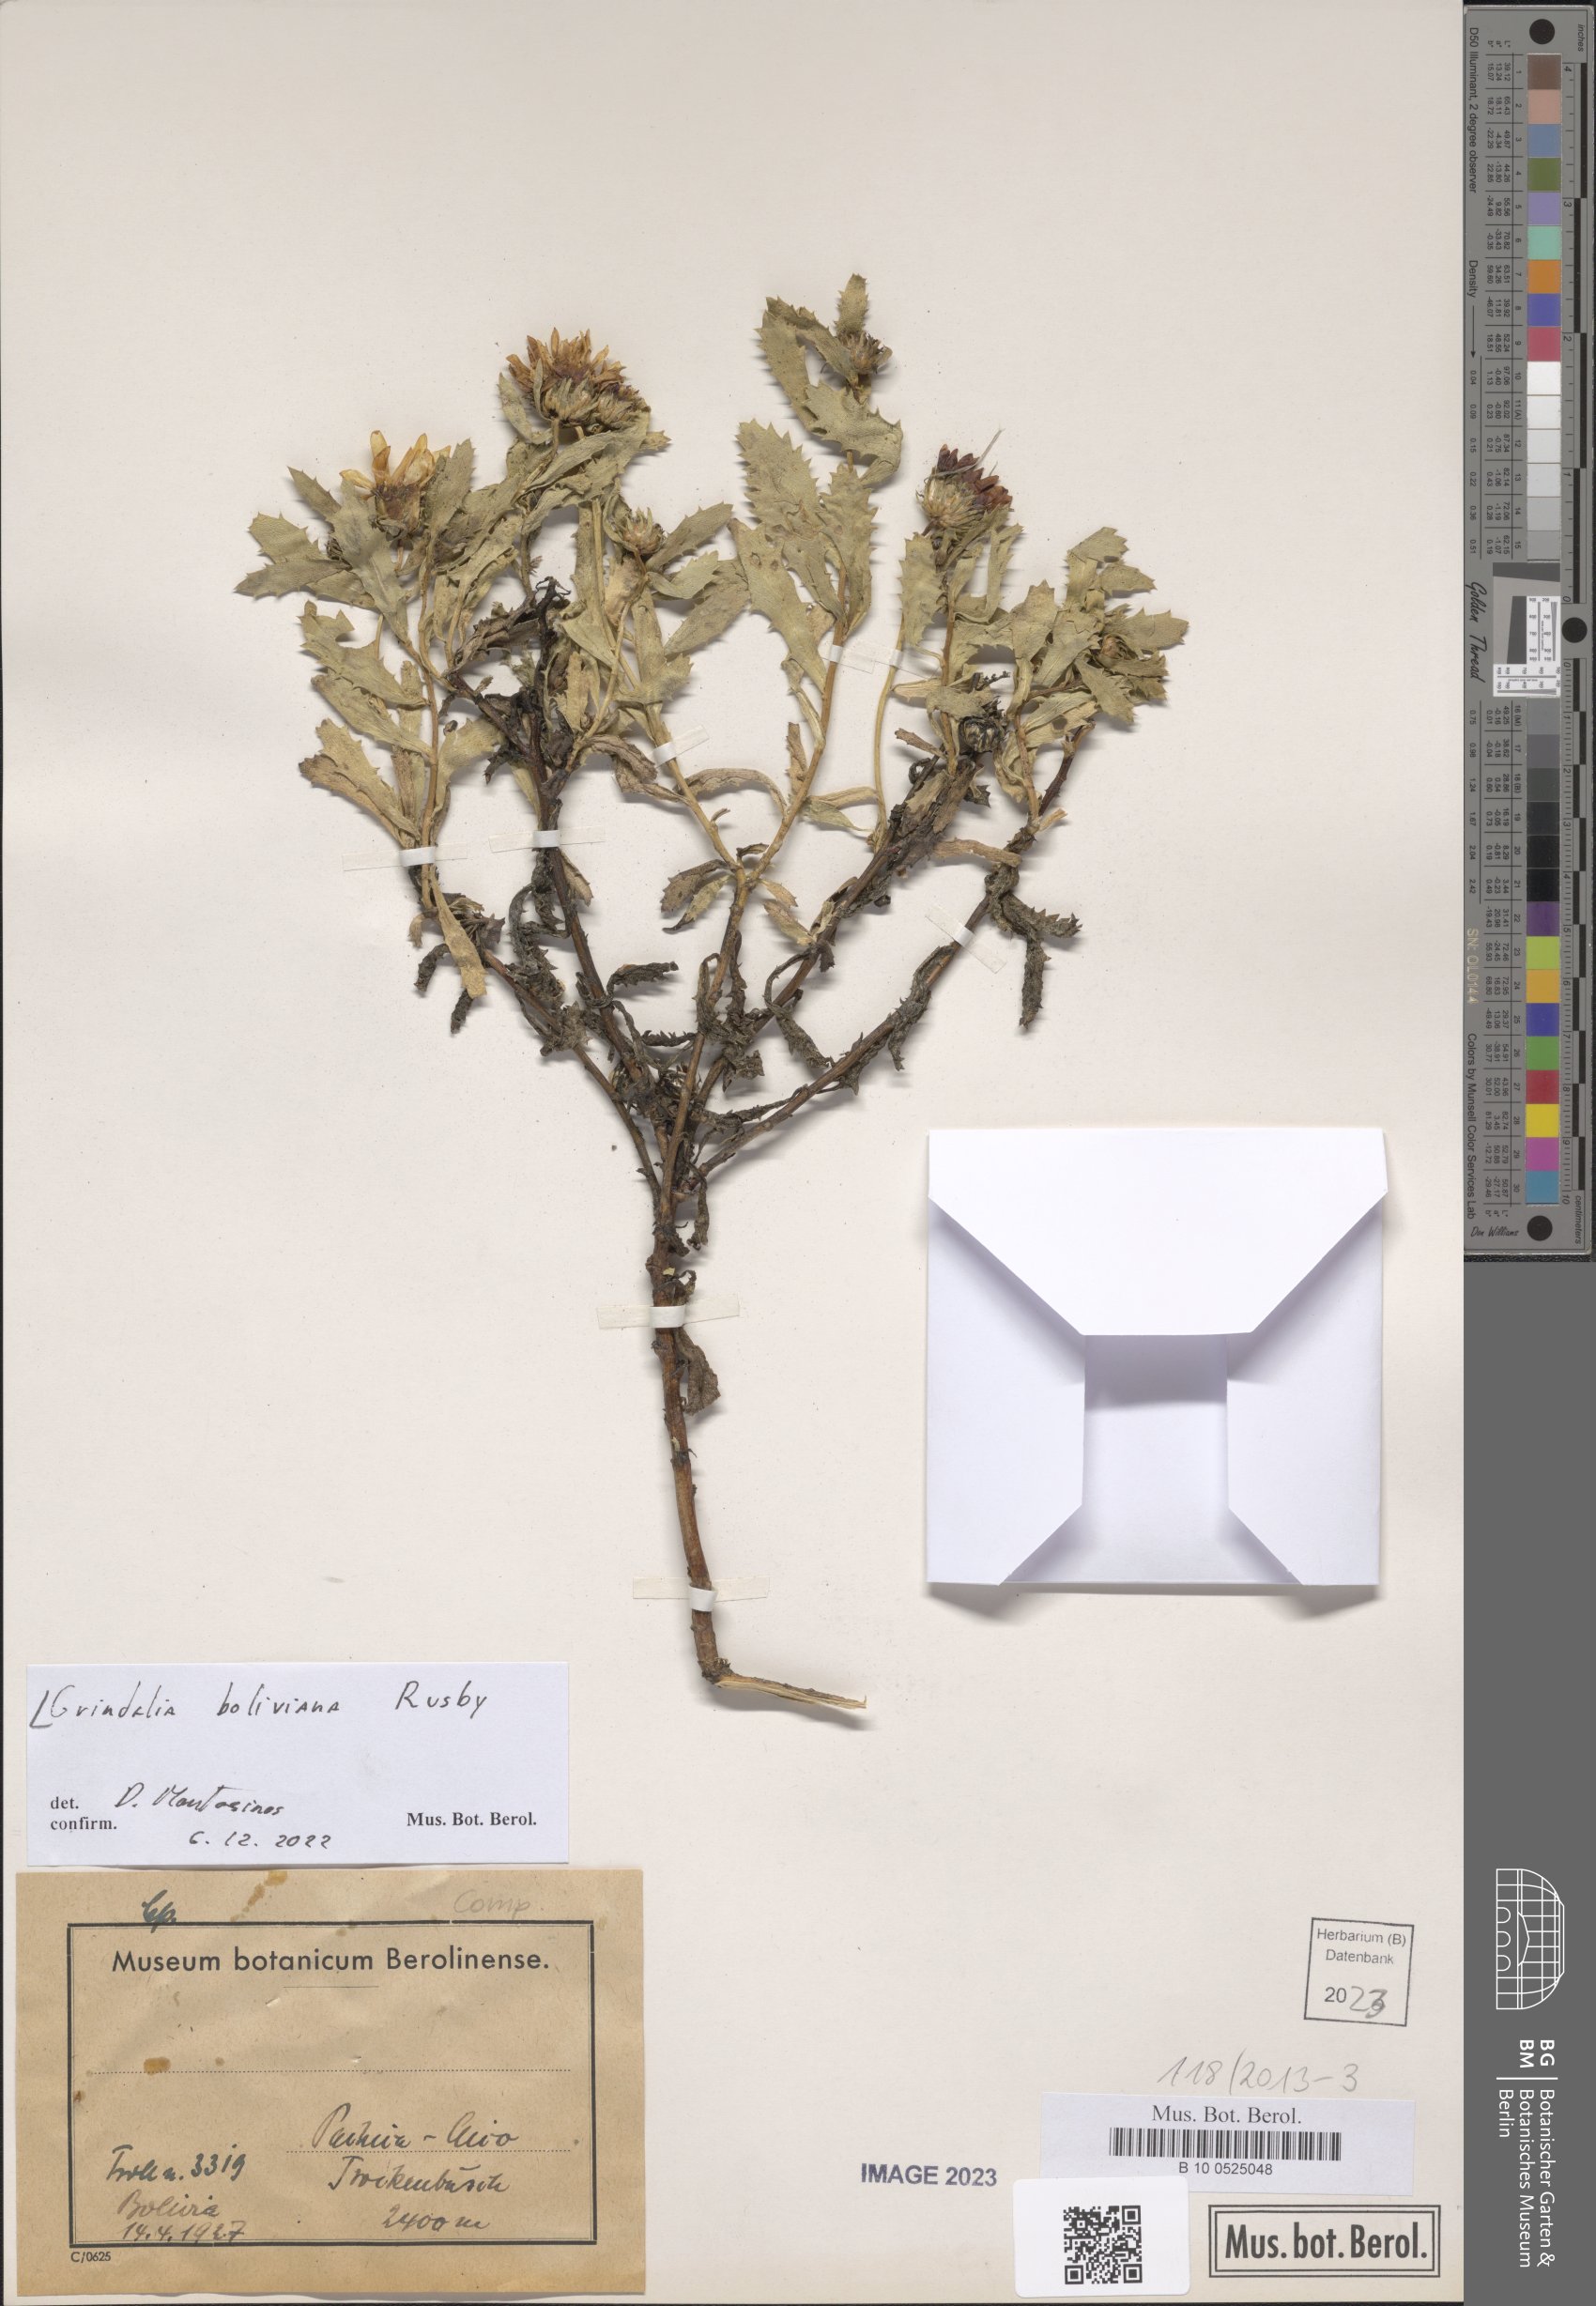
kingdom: Plantae
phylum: Tracheophyta
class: Magnoliopsida
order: Asterales
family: Asteraceae
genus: Grindelia
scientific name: Grindelia boliviana
